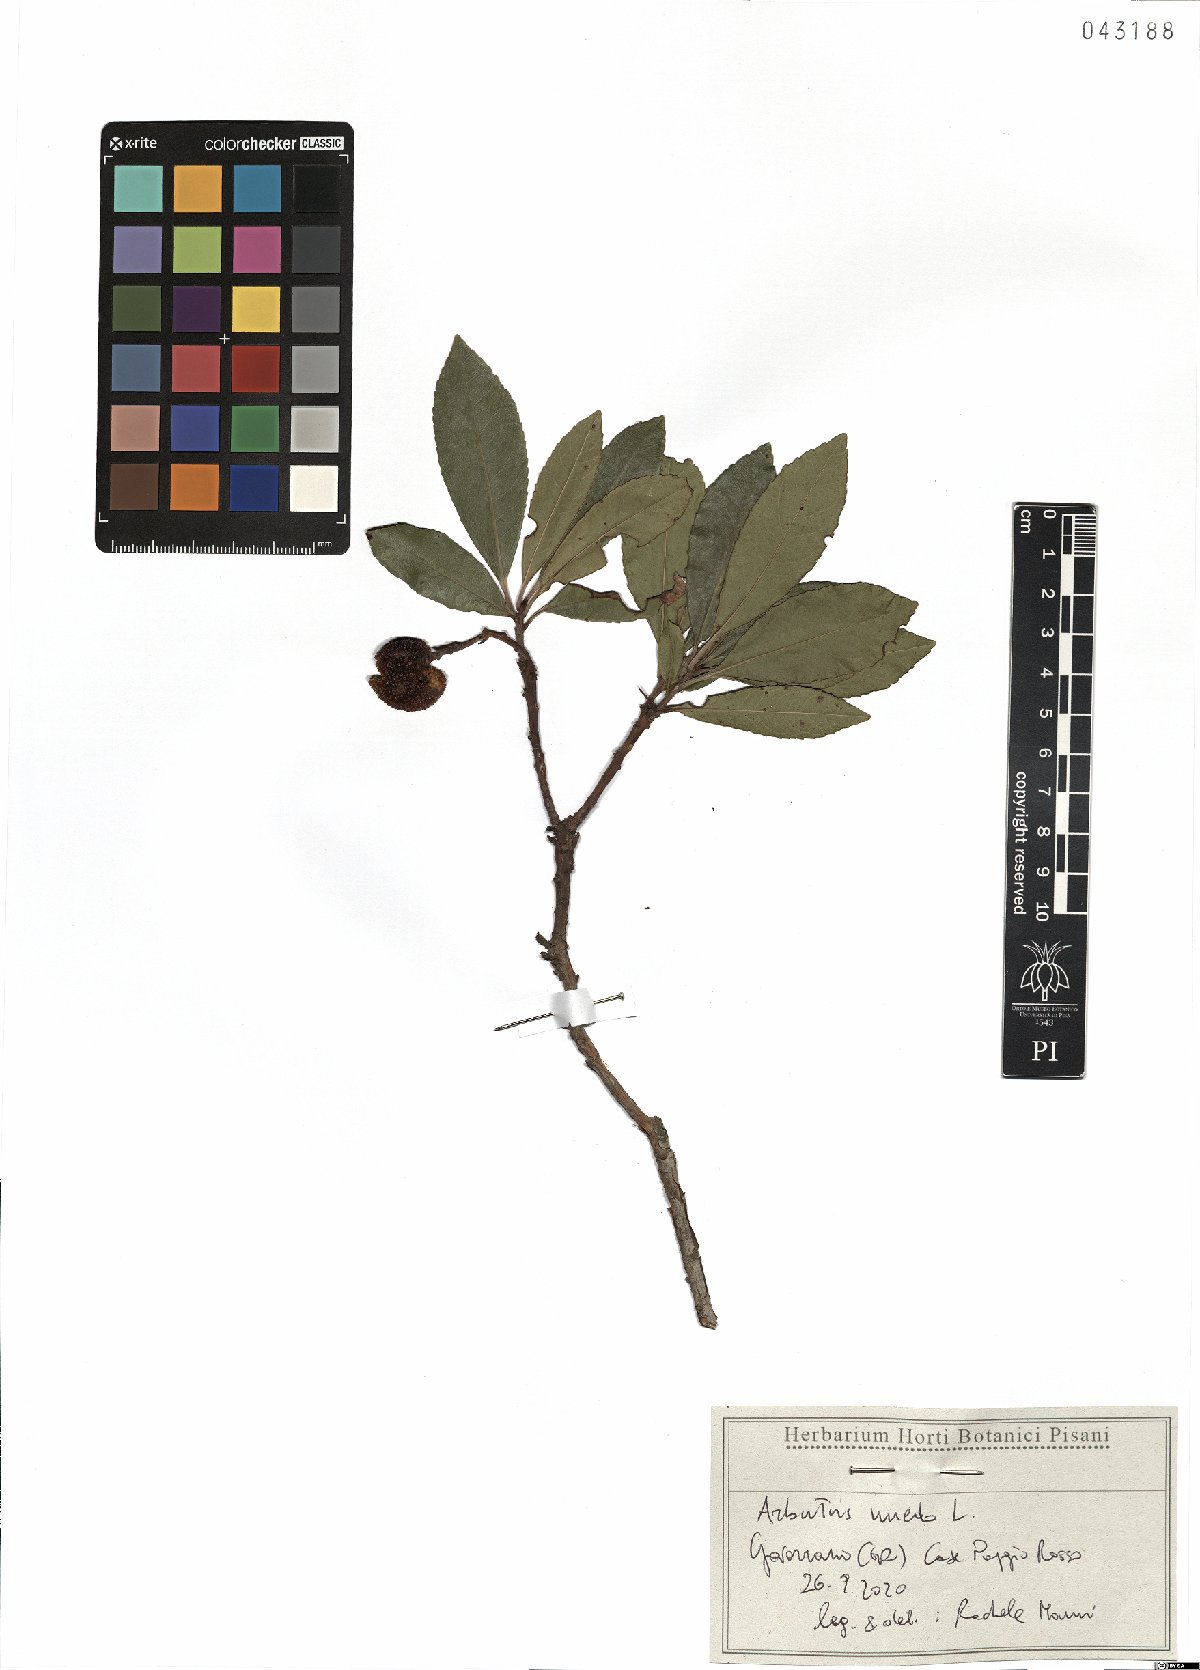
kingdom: Plantae
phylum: Tracheophyta
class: Magnoliopsida
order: Ericales
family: Ericaceae
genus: Arbutus
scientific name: Arbutus unedo
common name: Strawberry-tree
